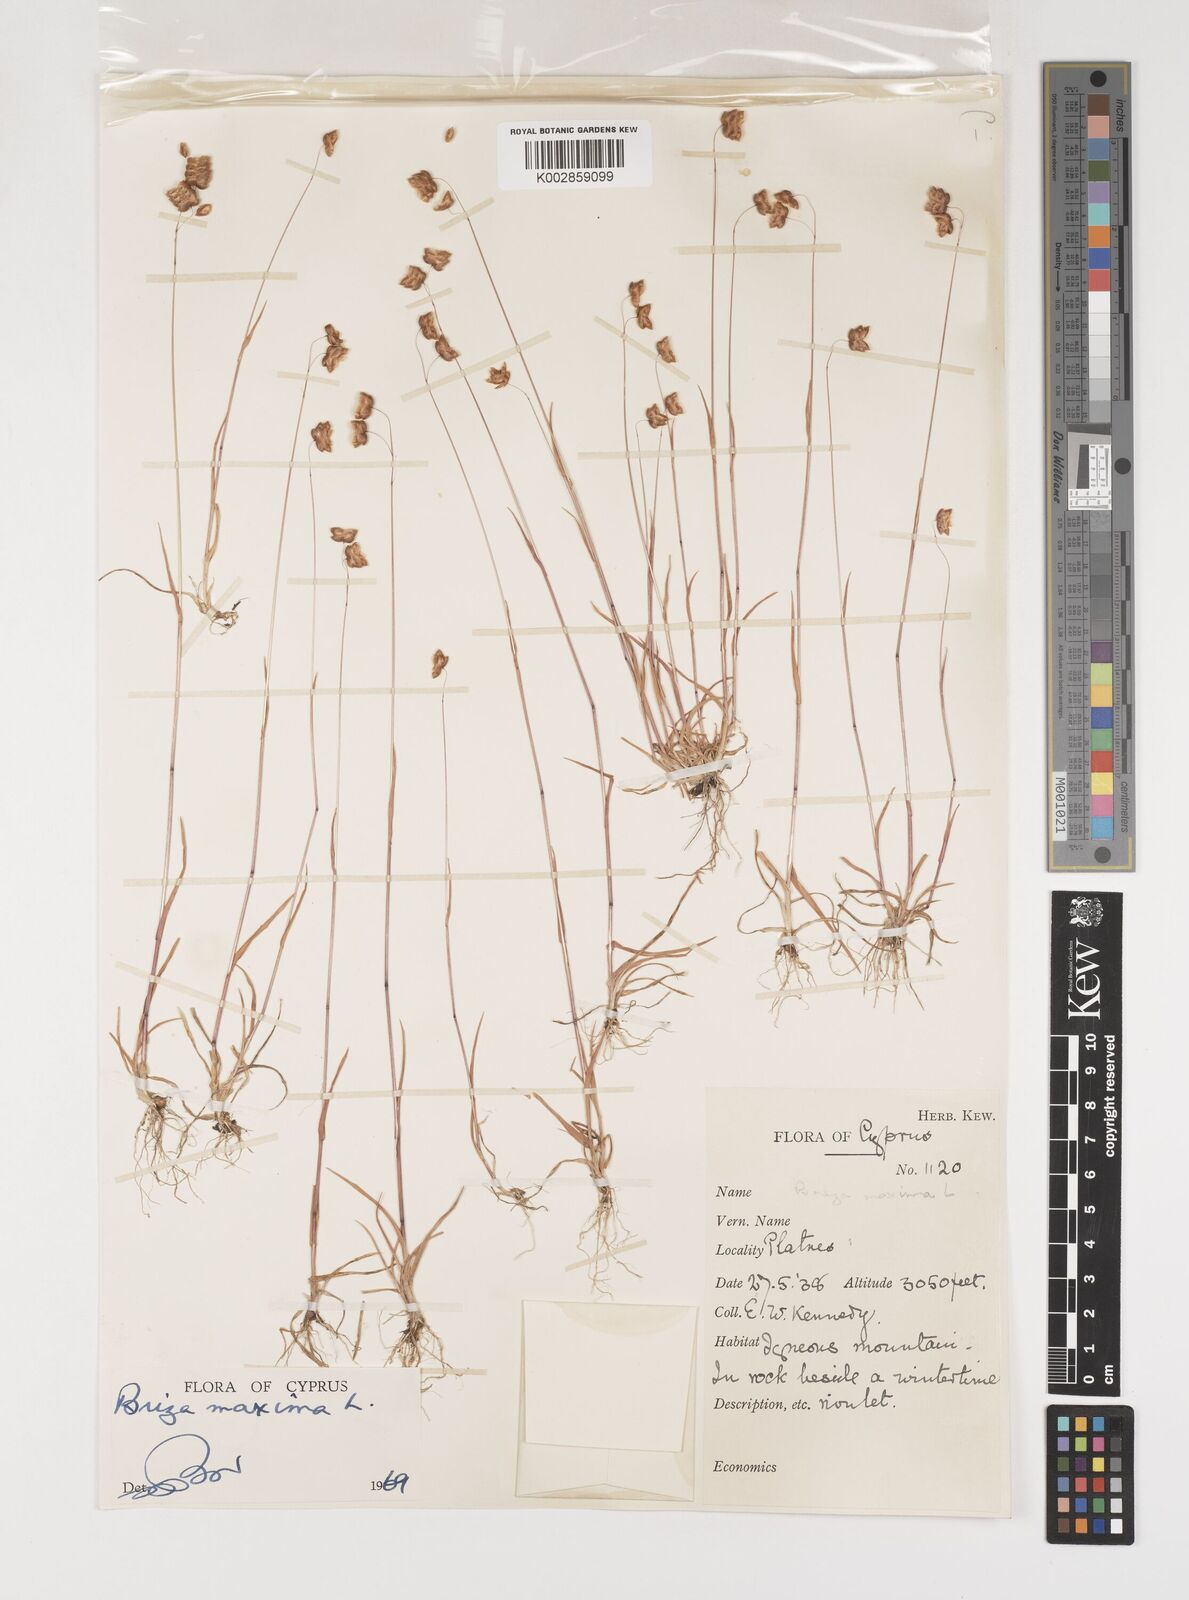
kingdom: Plantae
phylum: Tracheophyta
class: Liliopsida
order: Poales
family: Poaceae
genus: Briza
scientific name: Briza maxima
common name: Big quakinggrass
